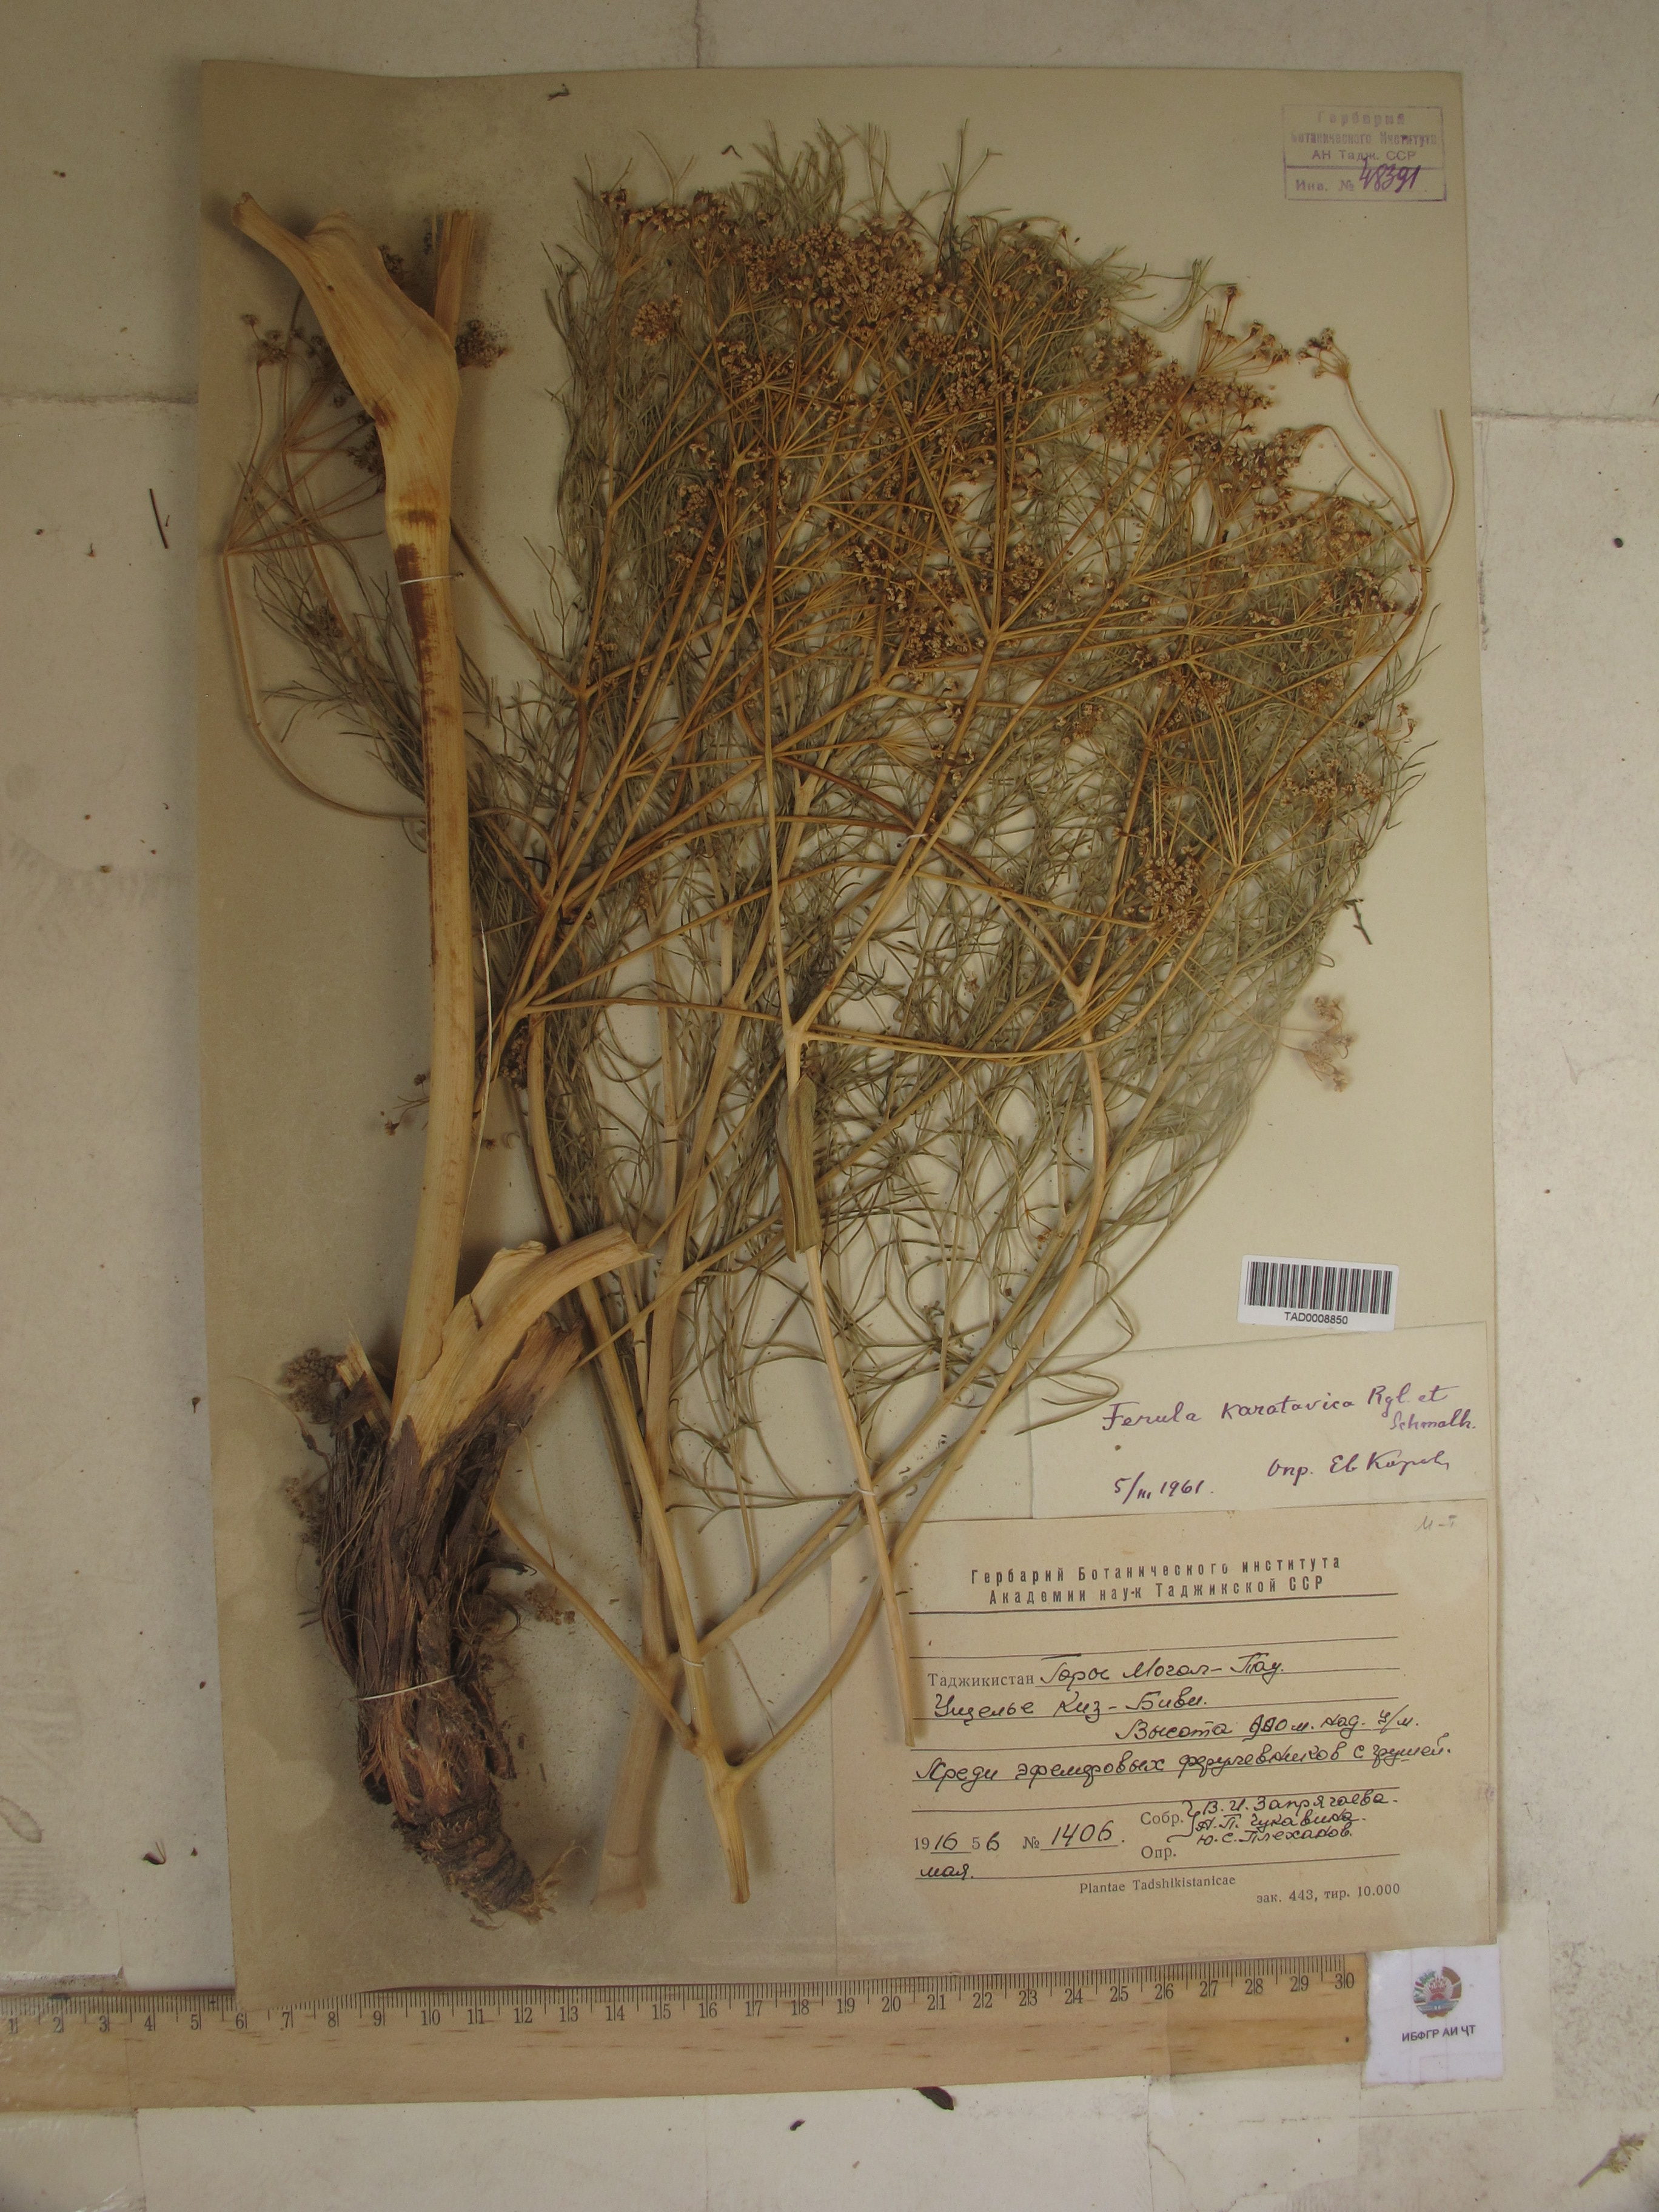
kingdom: Plantae
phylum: Tracheophyta
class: Magnoliopsida
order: Apiales
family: Apiaceae
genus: Ferula
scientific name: Ferula karatavica
